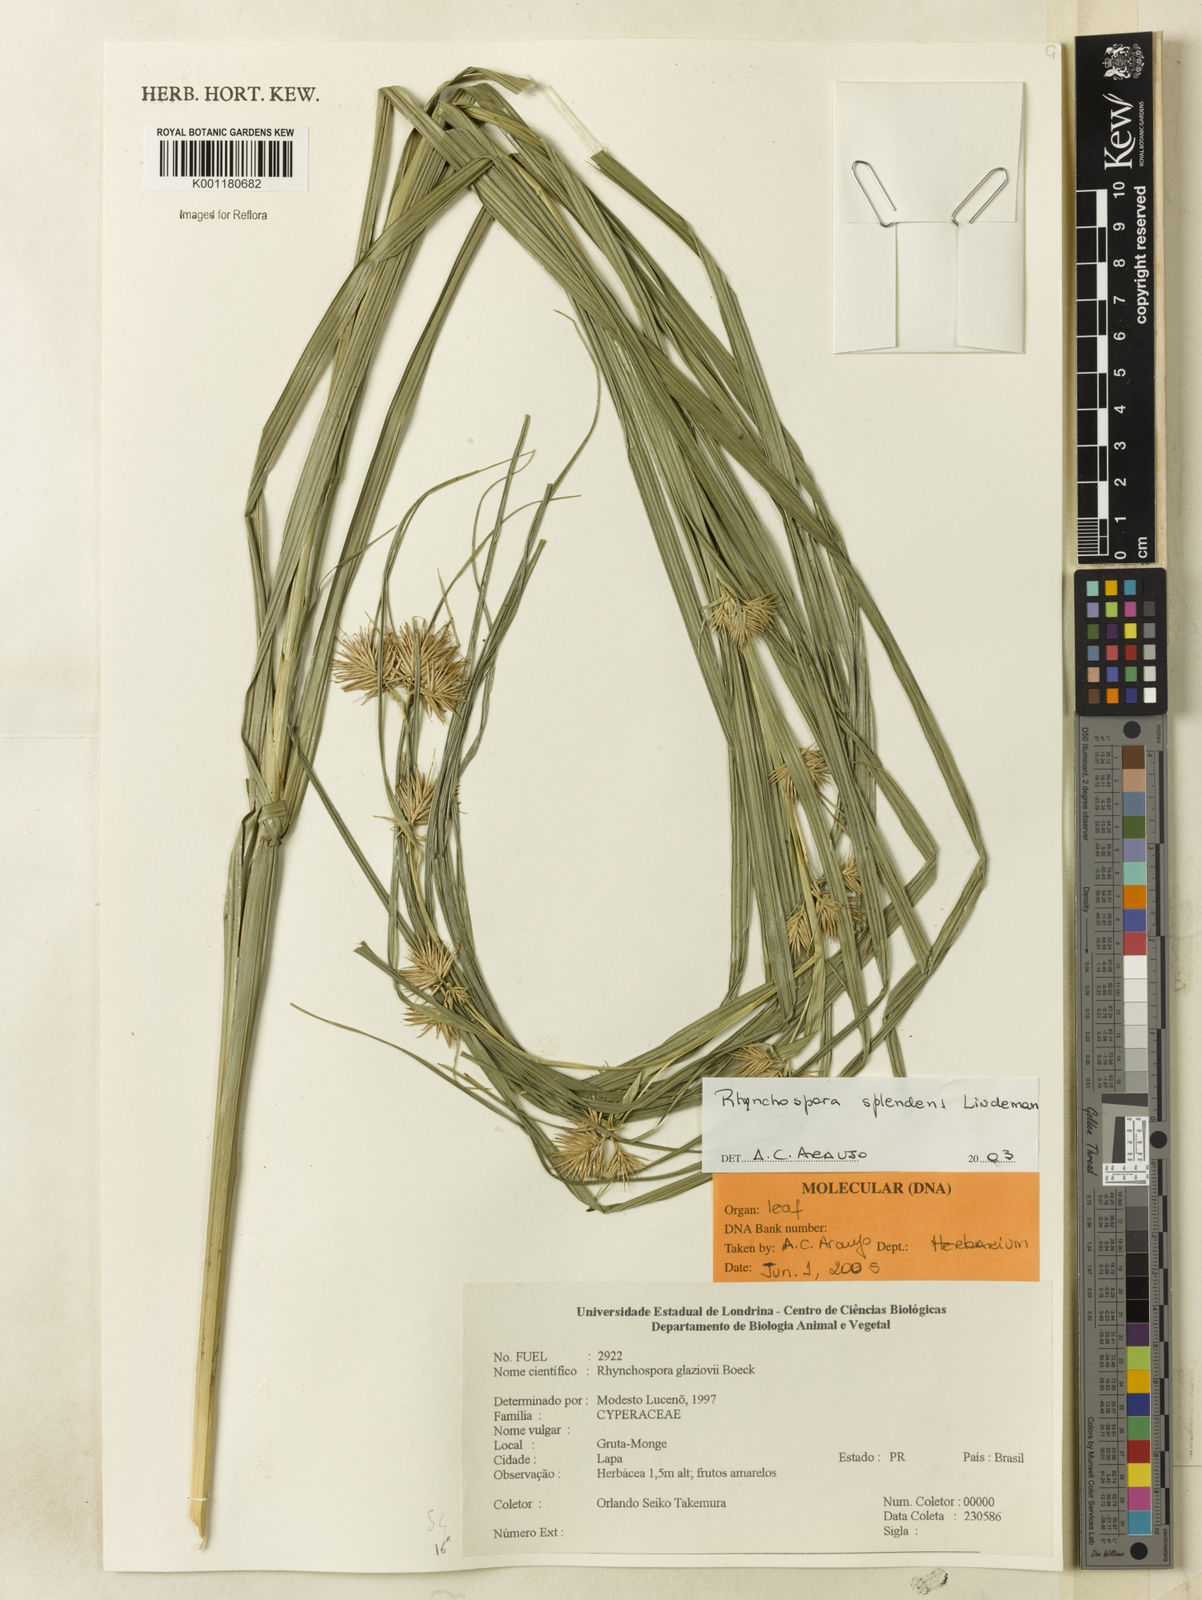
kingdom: Plantae
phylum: Tracheophyta
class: Liliopsida
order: Poales
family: Cyperaceae
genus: Rhynchospora
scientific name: Rhynchospora splendens
